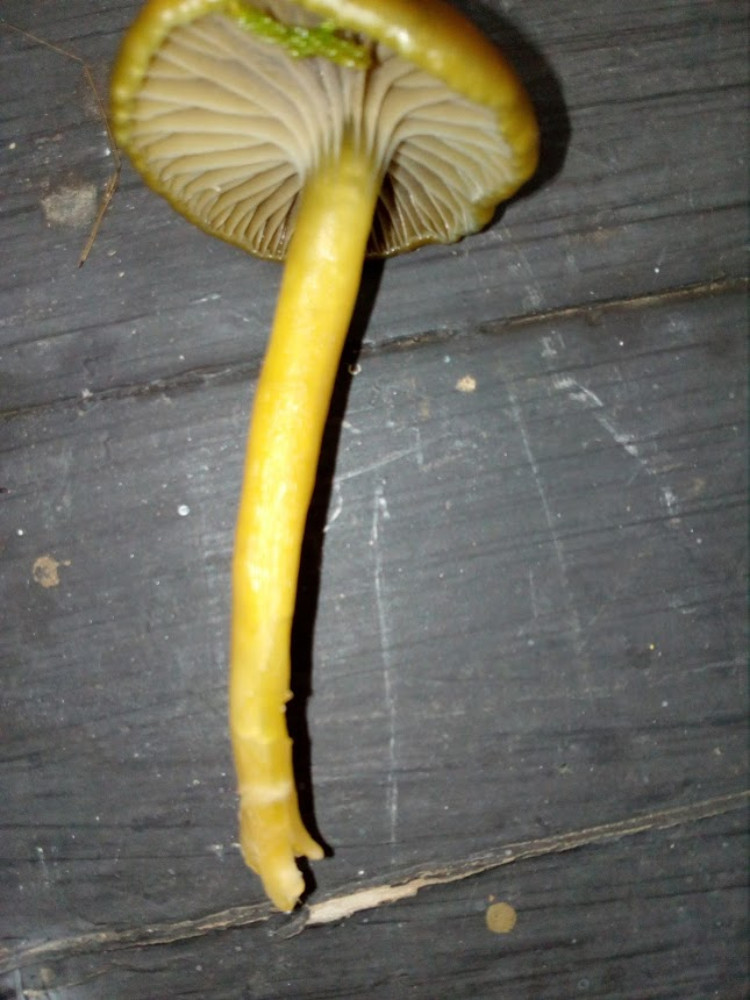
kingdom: Fungi
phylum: Basidiomycota
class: Agaricomycetes
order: Agaricales
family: Hygrophoraceae
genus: Gliophorus
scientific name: Gliophorus laetus
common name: brusk-vokshat
